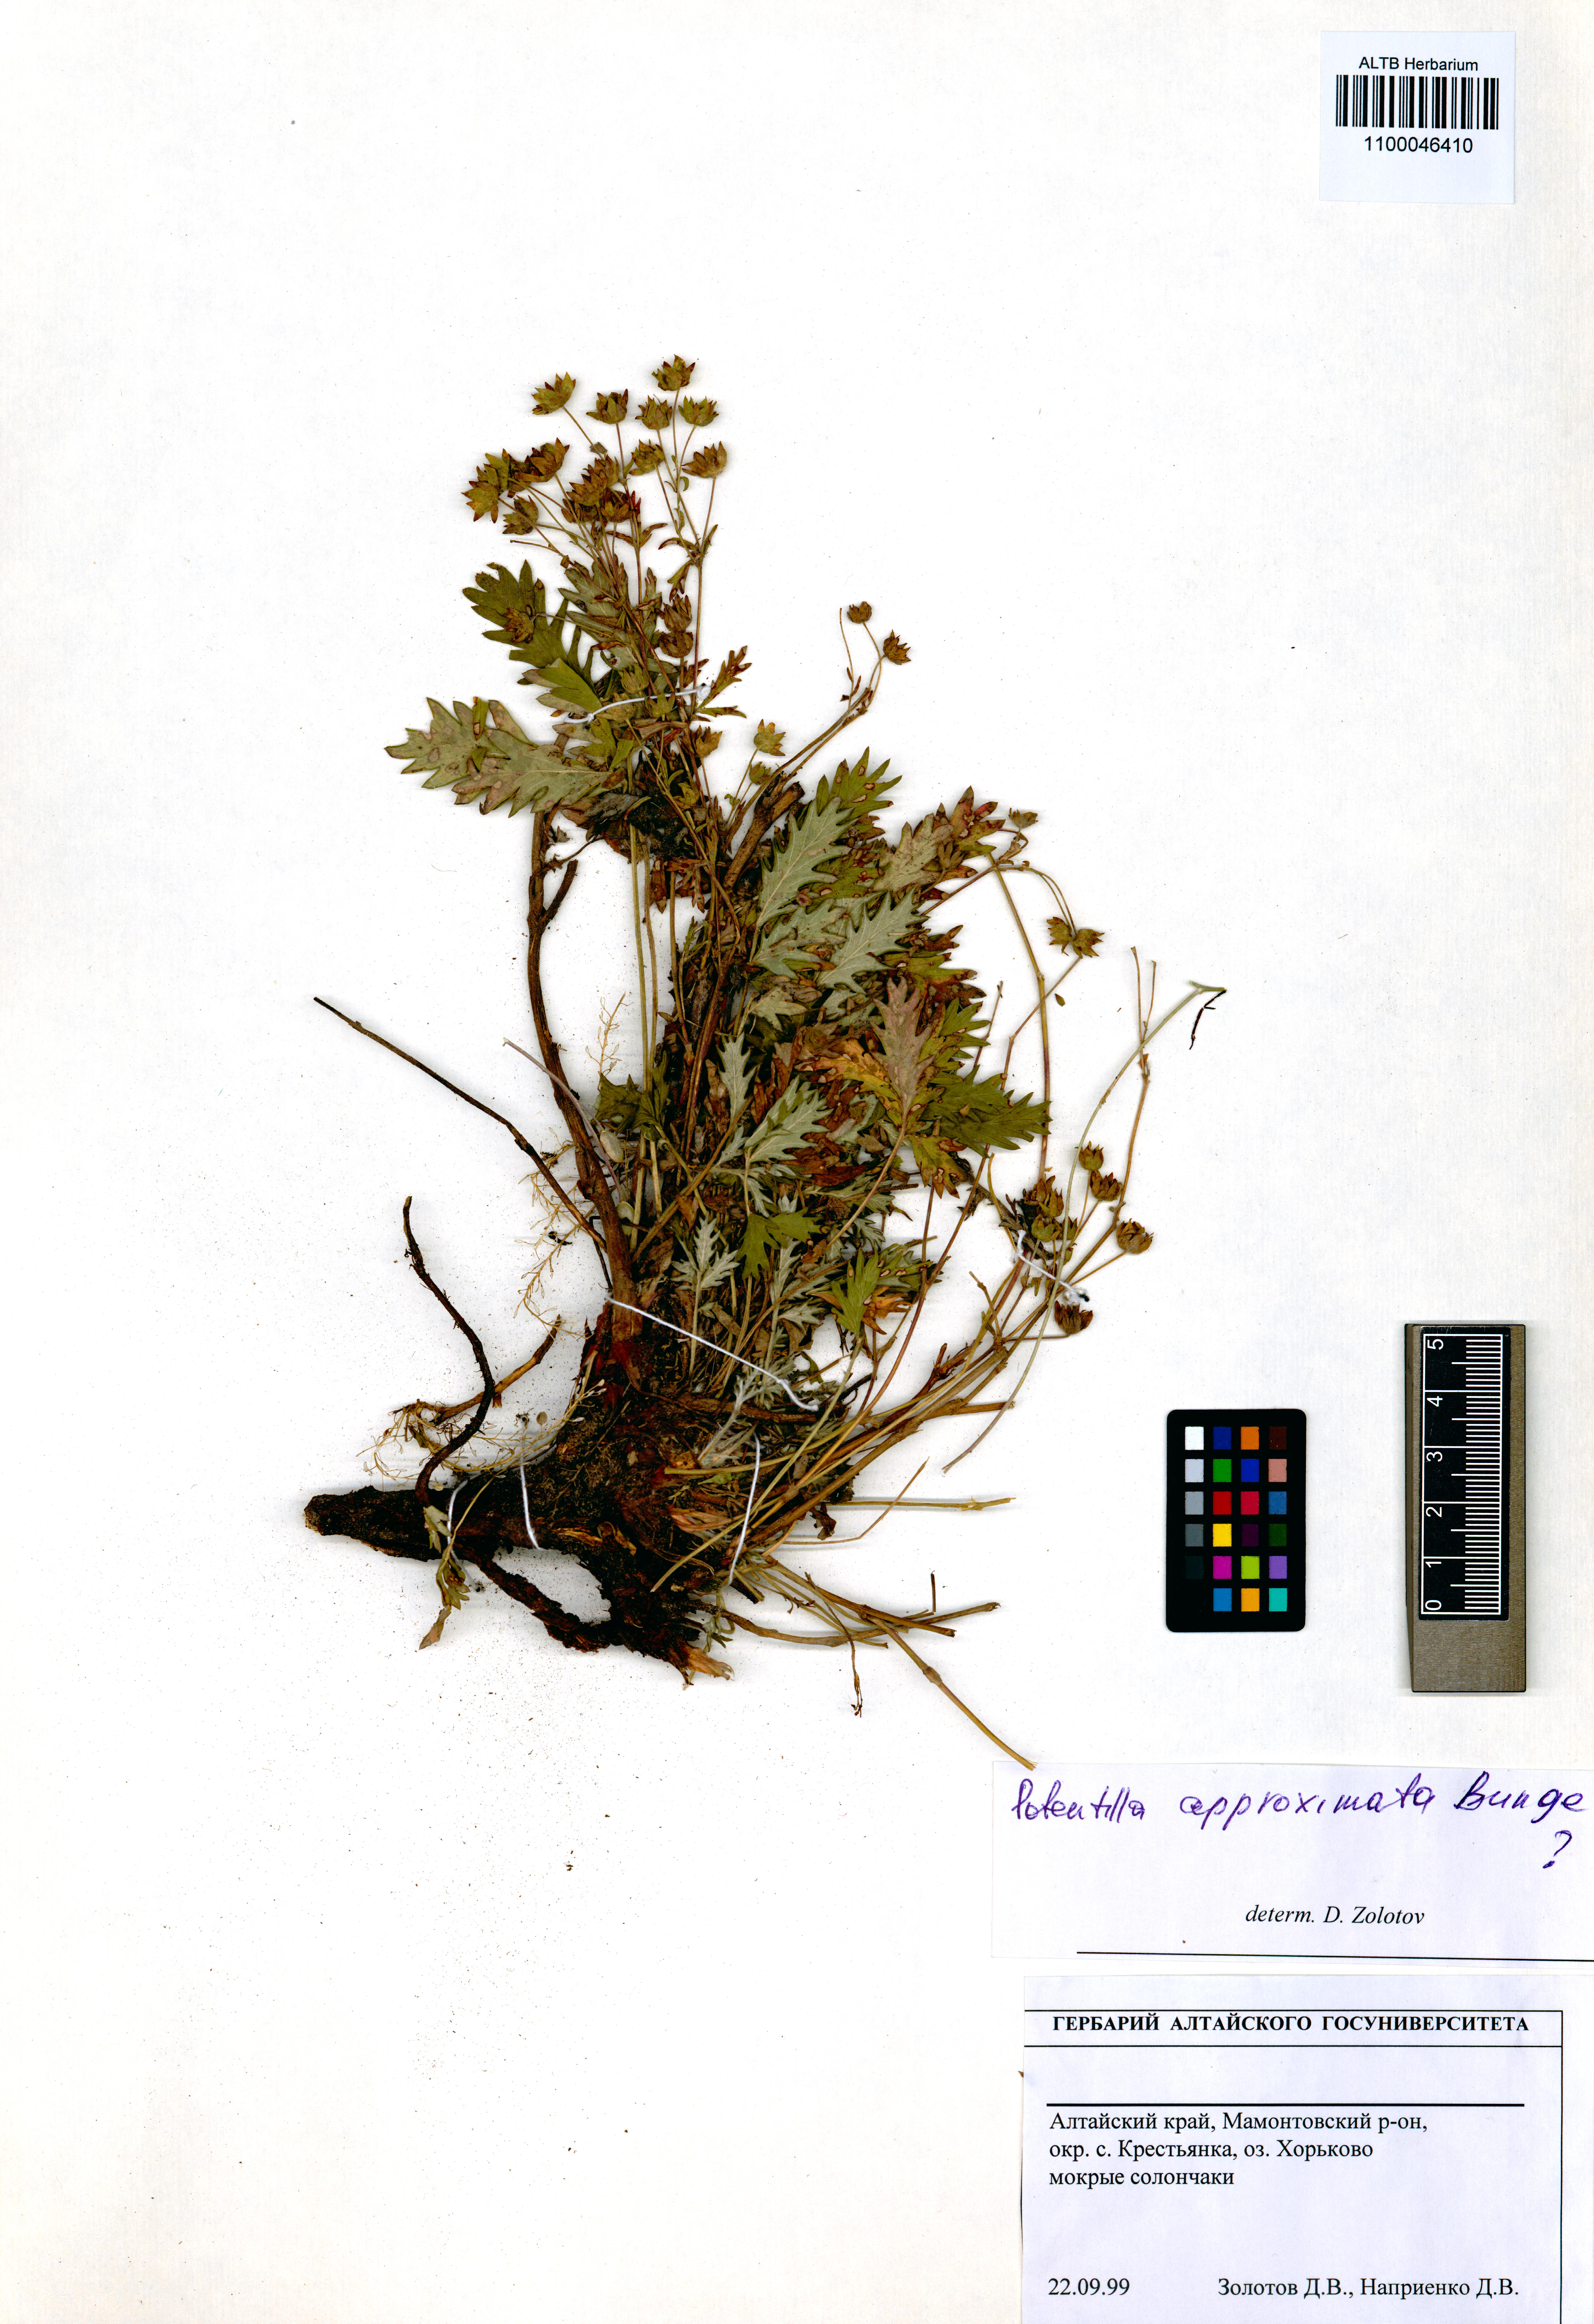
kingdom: Plantae
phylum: Tracheophyta
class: Magnoliopsida
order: Rosales
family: Rosaceae
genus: Potentilla
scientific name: Potentilla conferta
